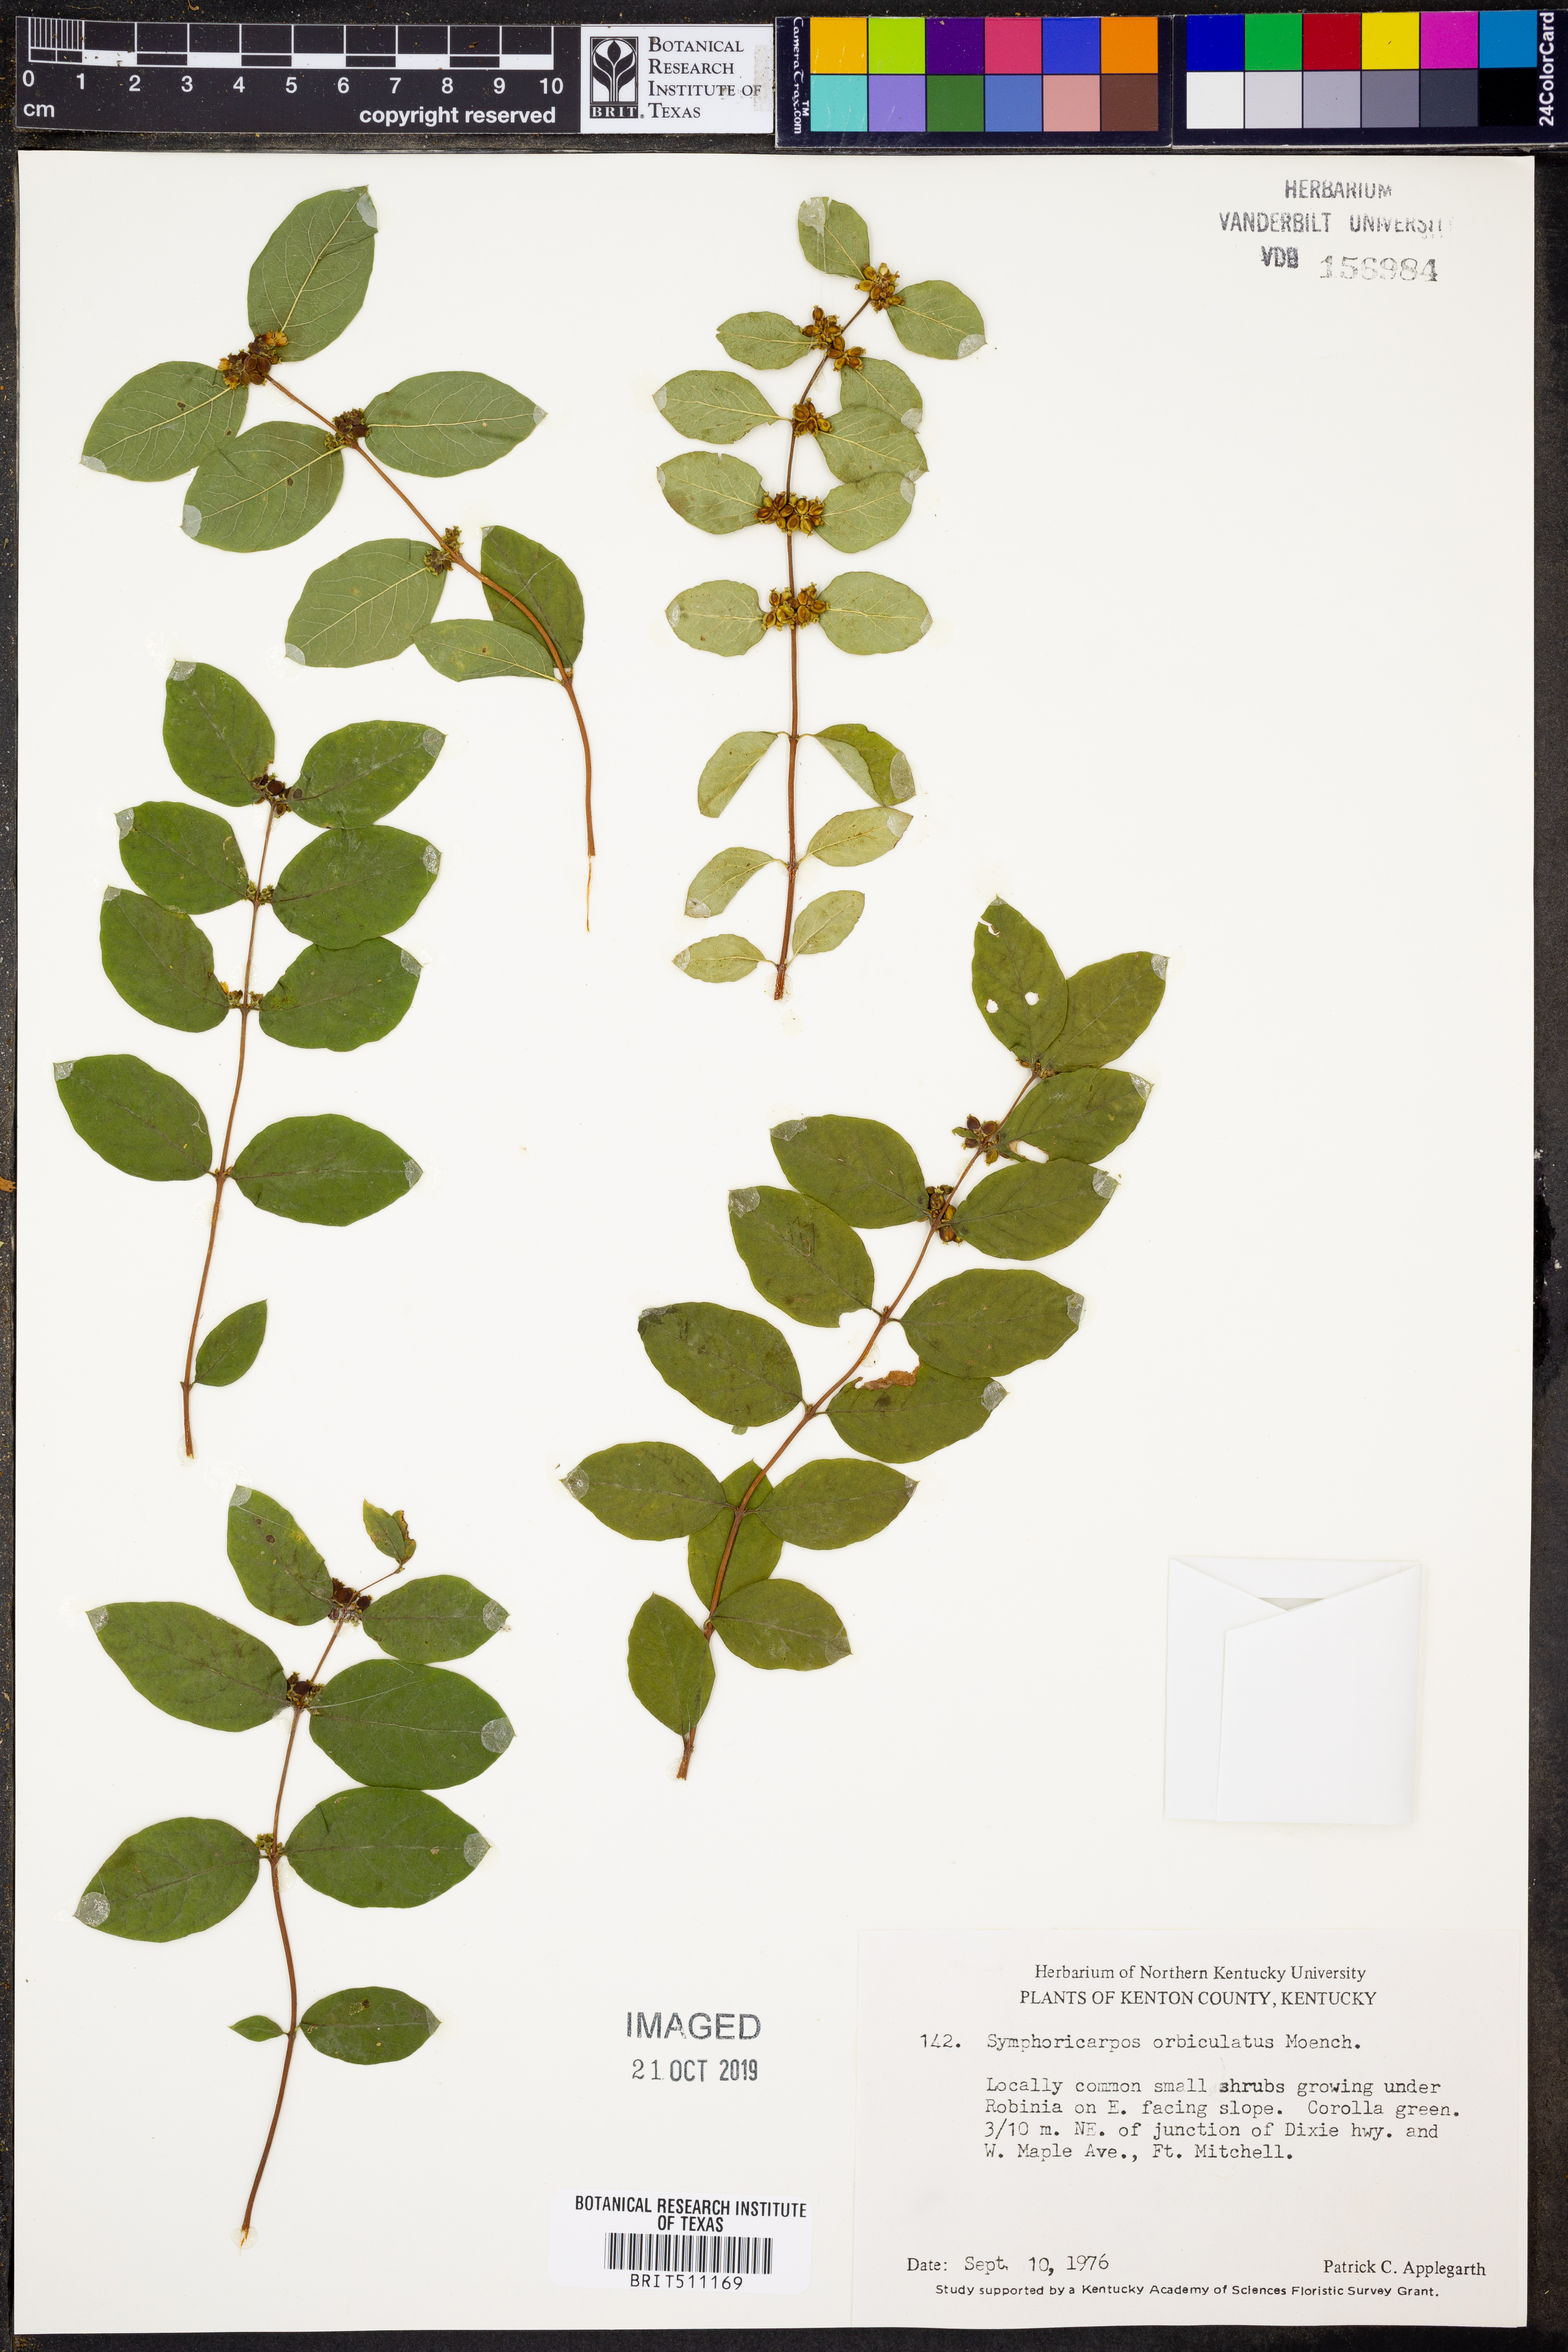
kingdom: Plantae
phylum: Tracheophyta
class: Magnoliopsida
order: Dipsacales
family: Caprifoliaceae
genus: Symphoricarpos
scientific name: Symphoricarpos orbiculatus
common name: Coralberry
